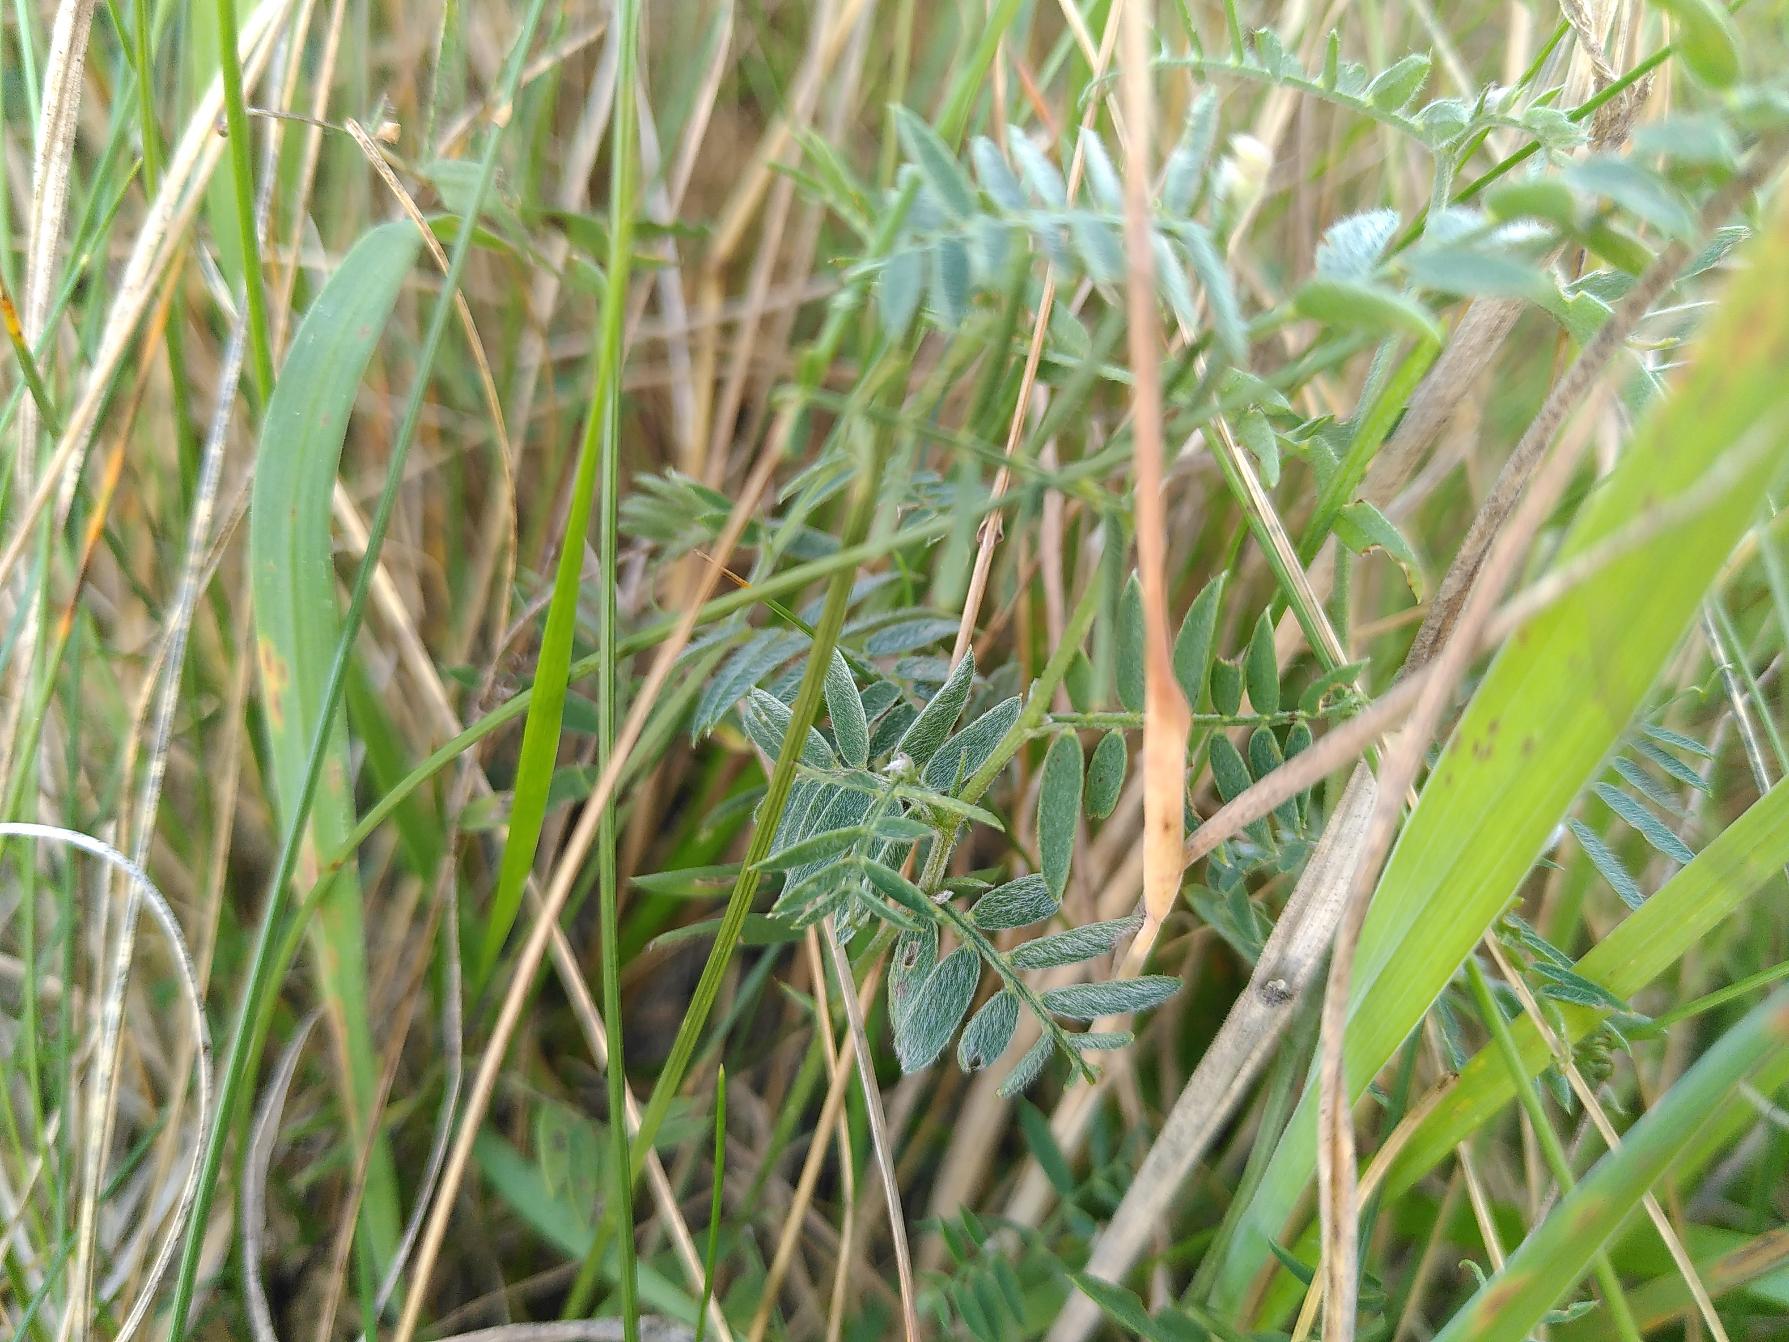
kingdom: Plantae
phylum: Tracheophyta
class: Magnoliopsida
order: Fabales
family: Fabaceae
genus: Vicia
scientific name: Vicia cracca
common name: Muse-vikke
